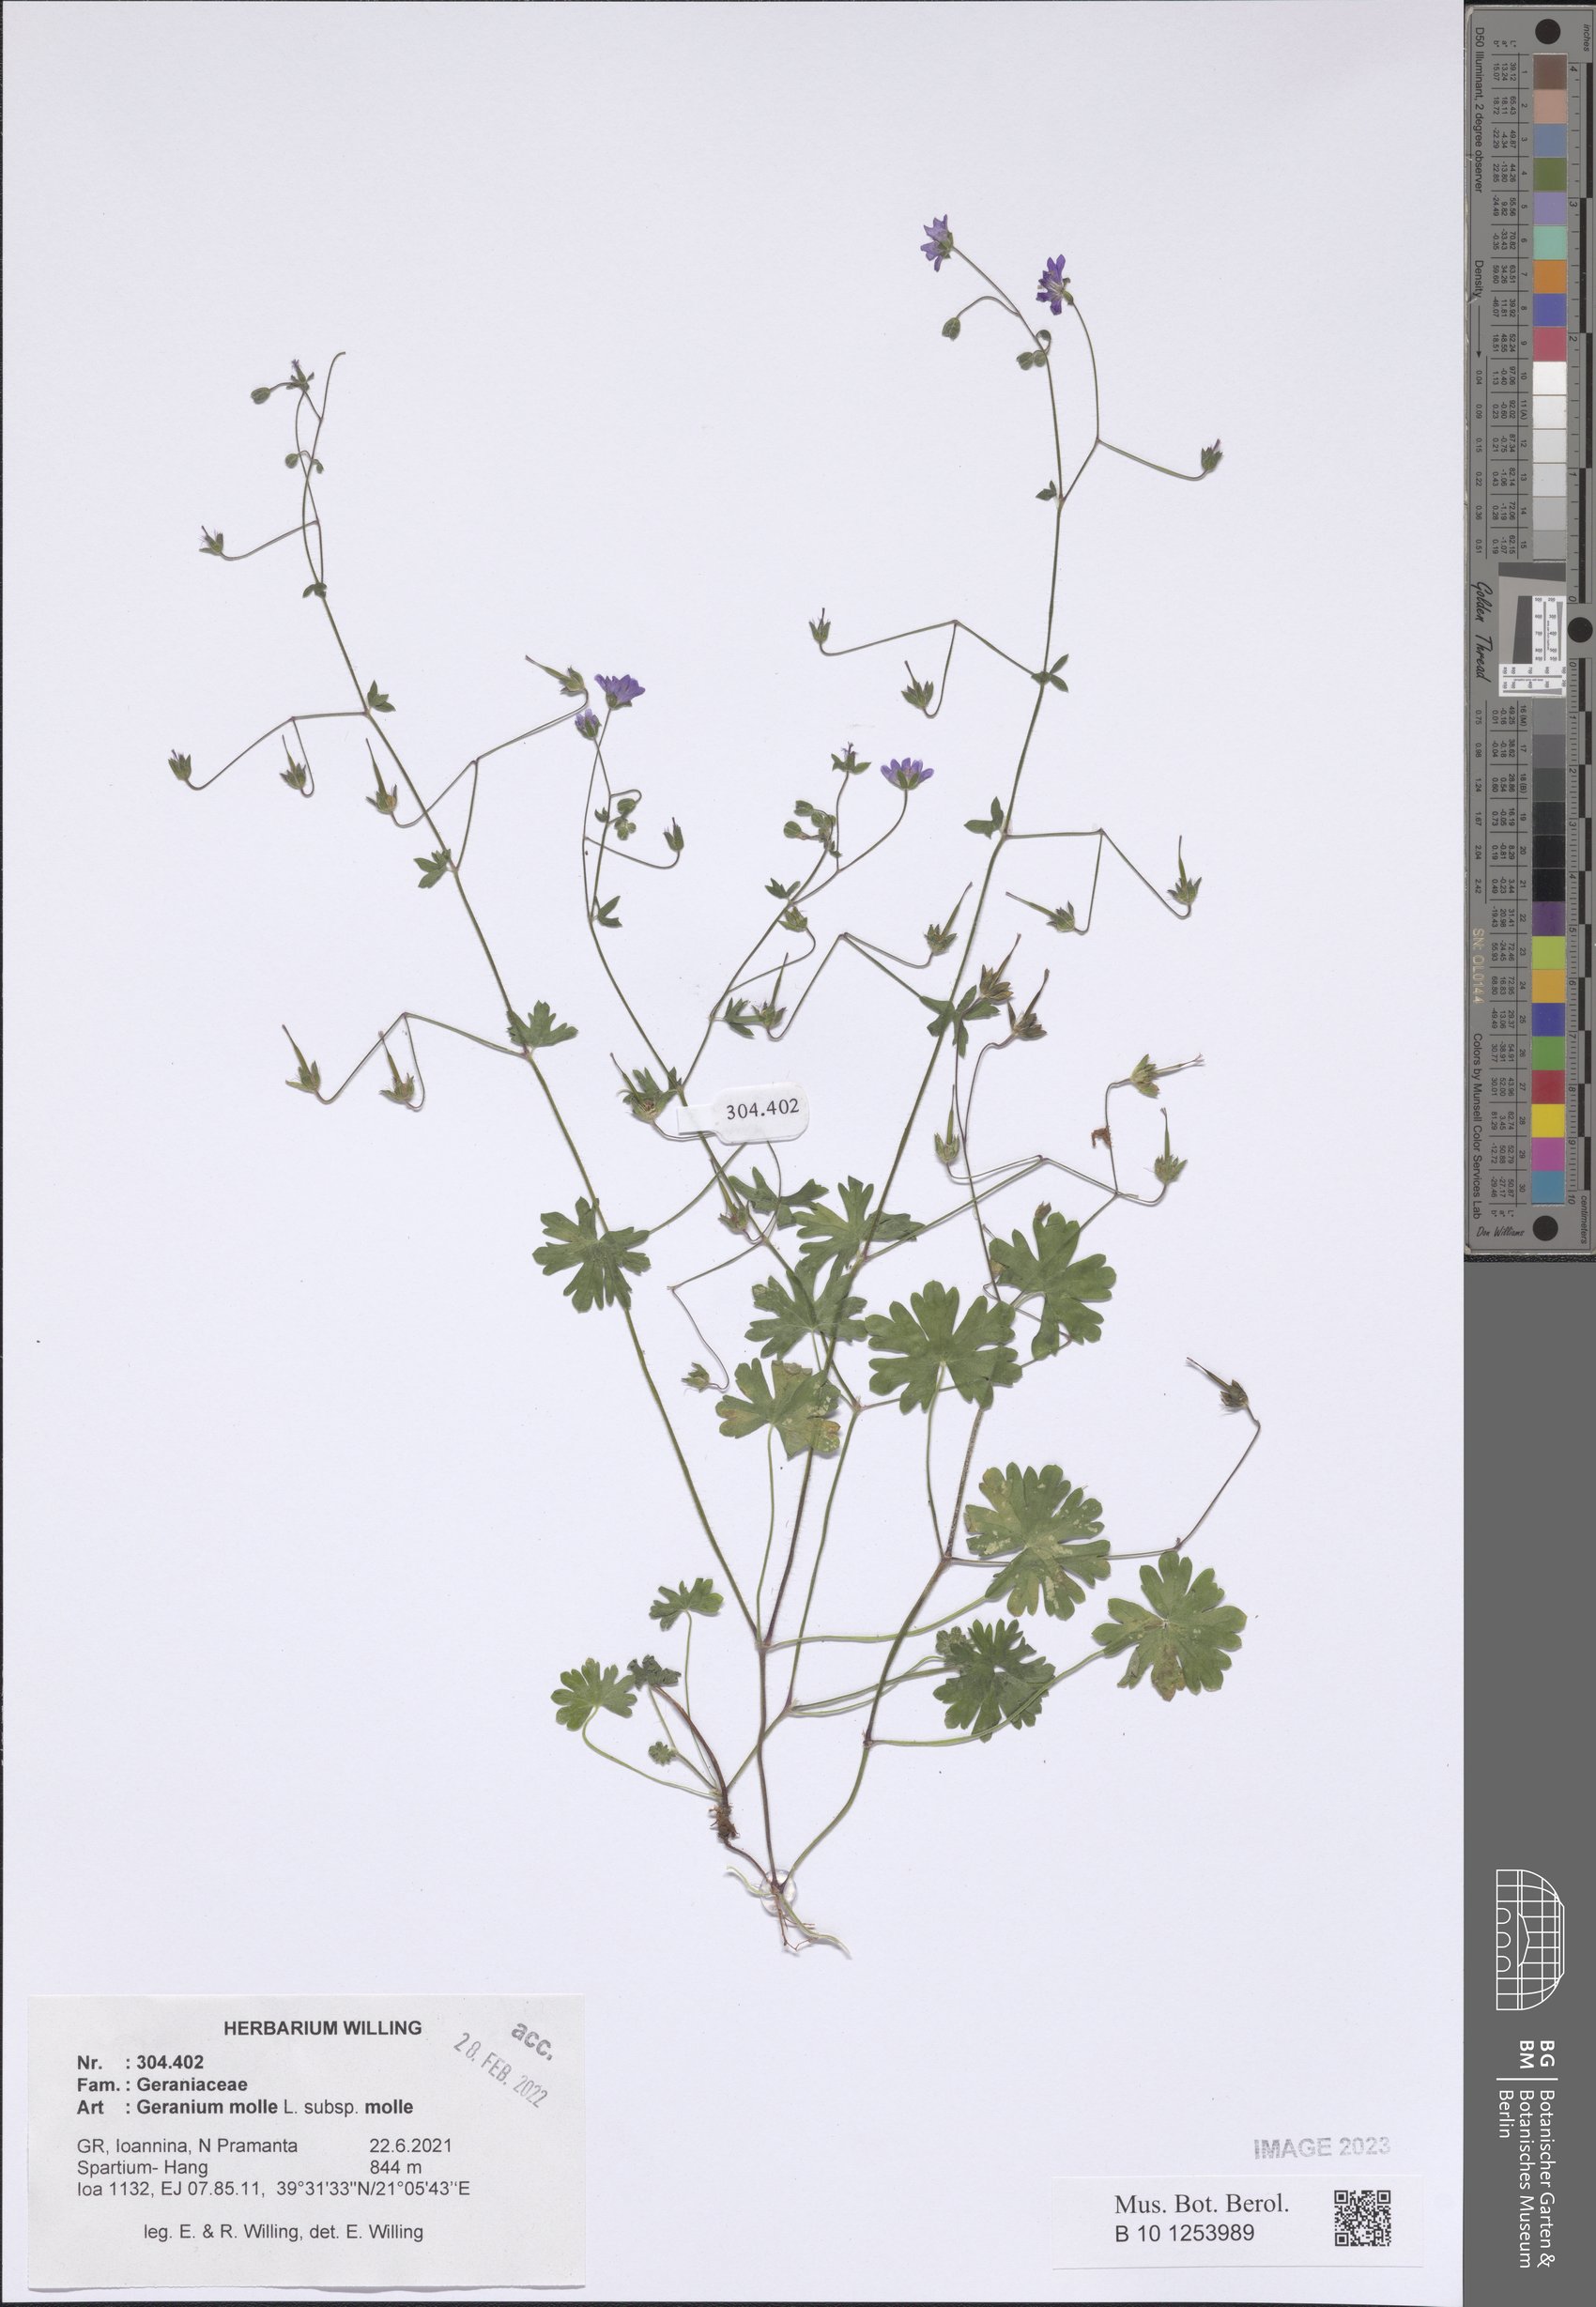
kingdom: Plantae
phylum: Tracheophyta
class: Magnoliopsida
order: Geraniales
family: Geraniaceae
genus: Geranium
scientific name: Geranium molle
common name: Dove's-foot crane's-bill
